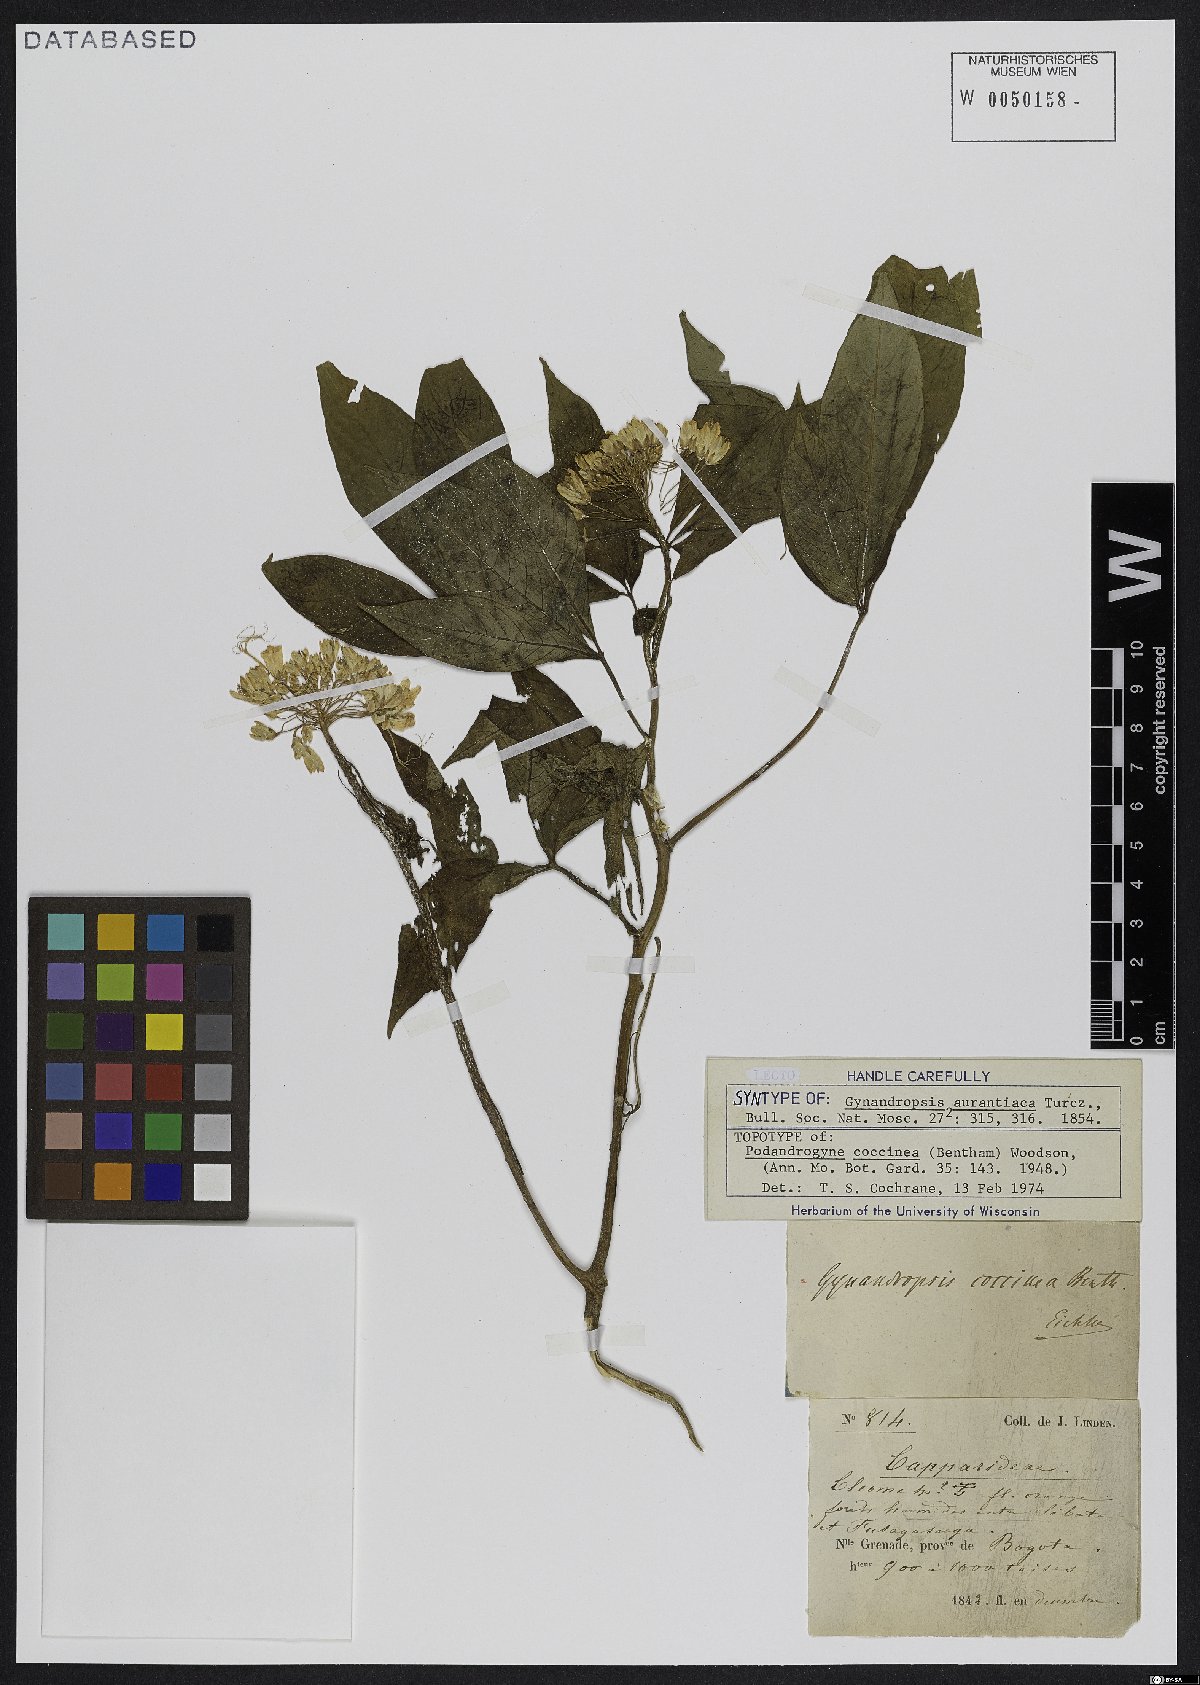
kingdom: Plantae
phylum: Tracheophyta
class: Magnoliopsida
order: Brassicales
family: Cleomaceae
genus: Podandrogyne
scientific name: Podandrogyne coccinea
